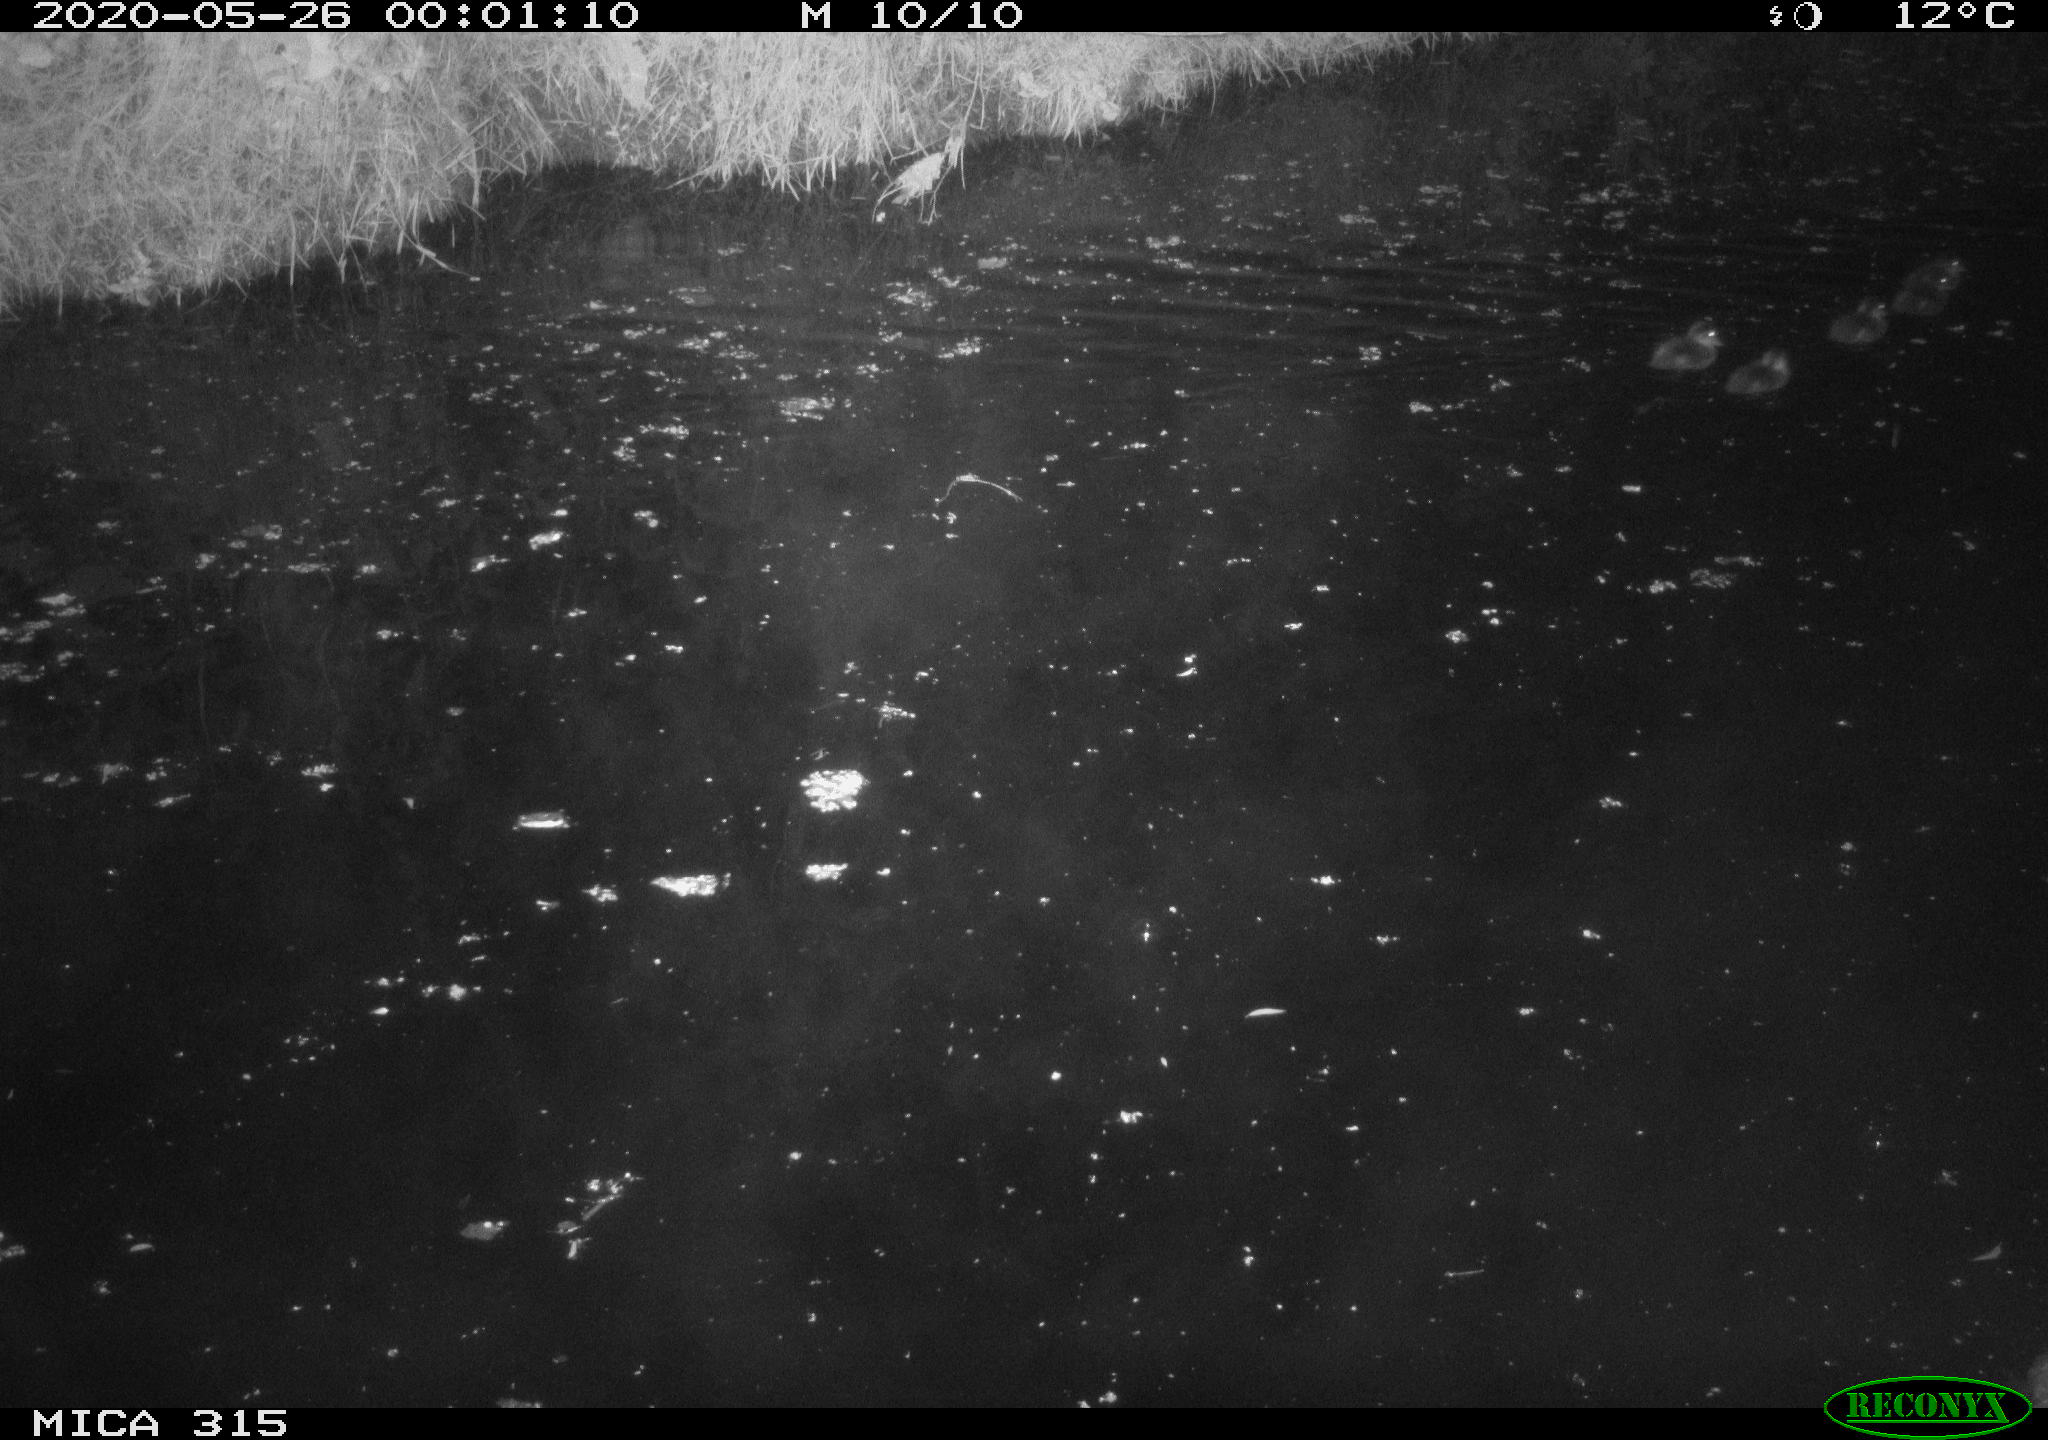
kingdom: Animalia
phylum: Chordata
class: Aves
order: Anseriformes
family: Anatidae
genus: Anas
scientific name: Anas platyrhynchos
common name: Mallard
